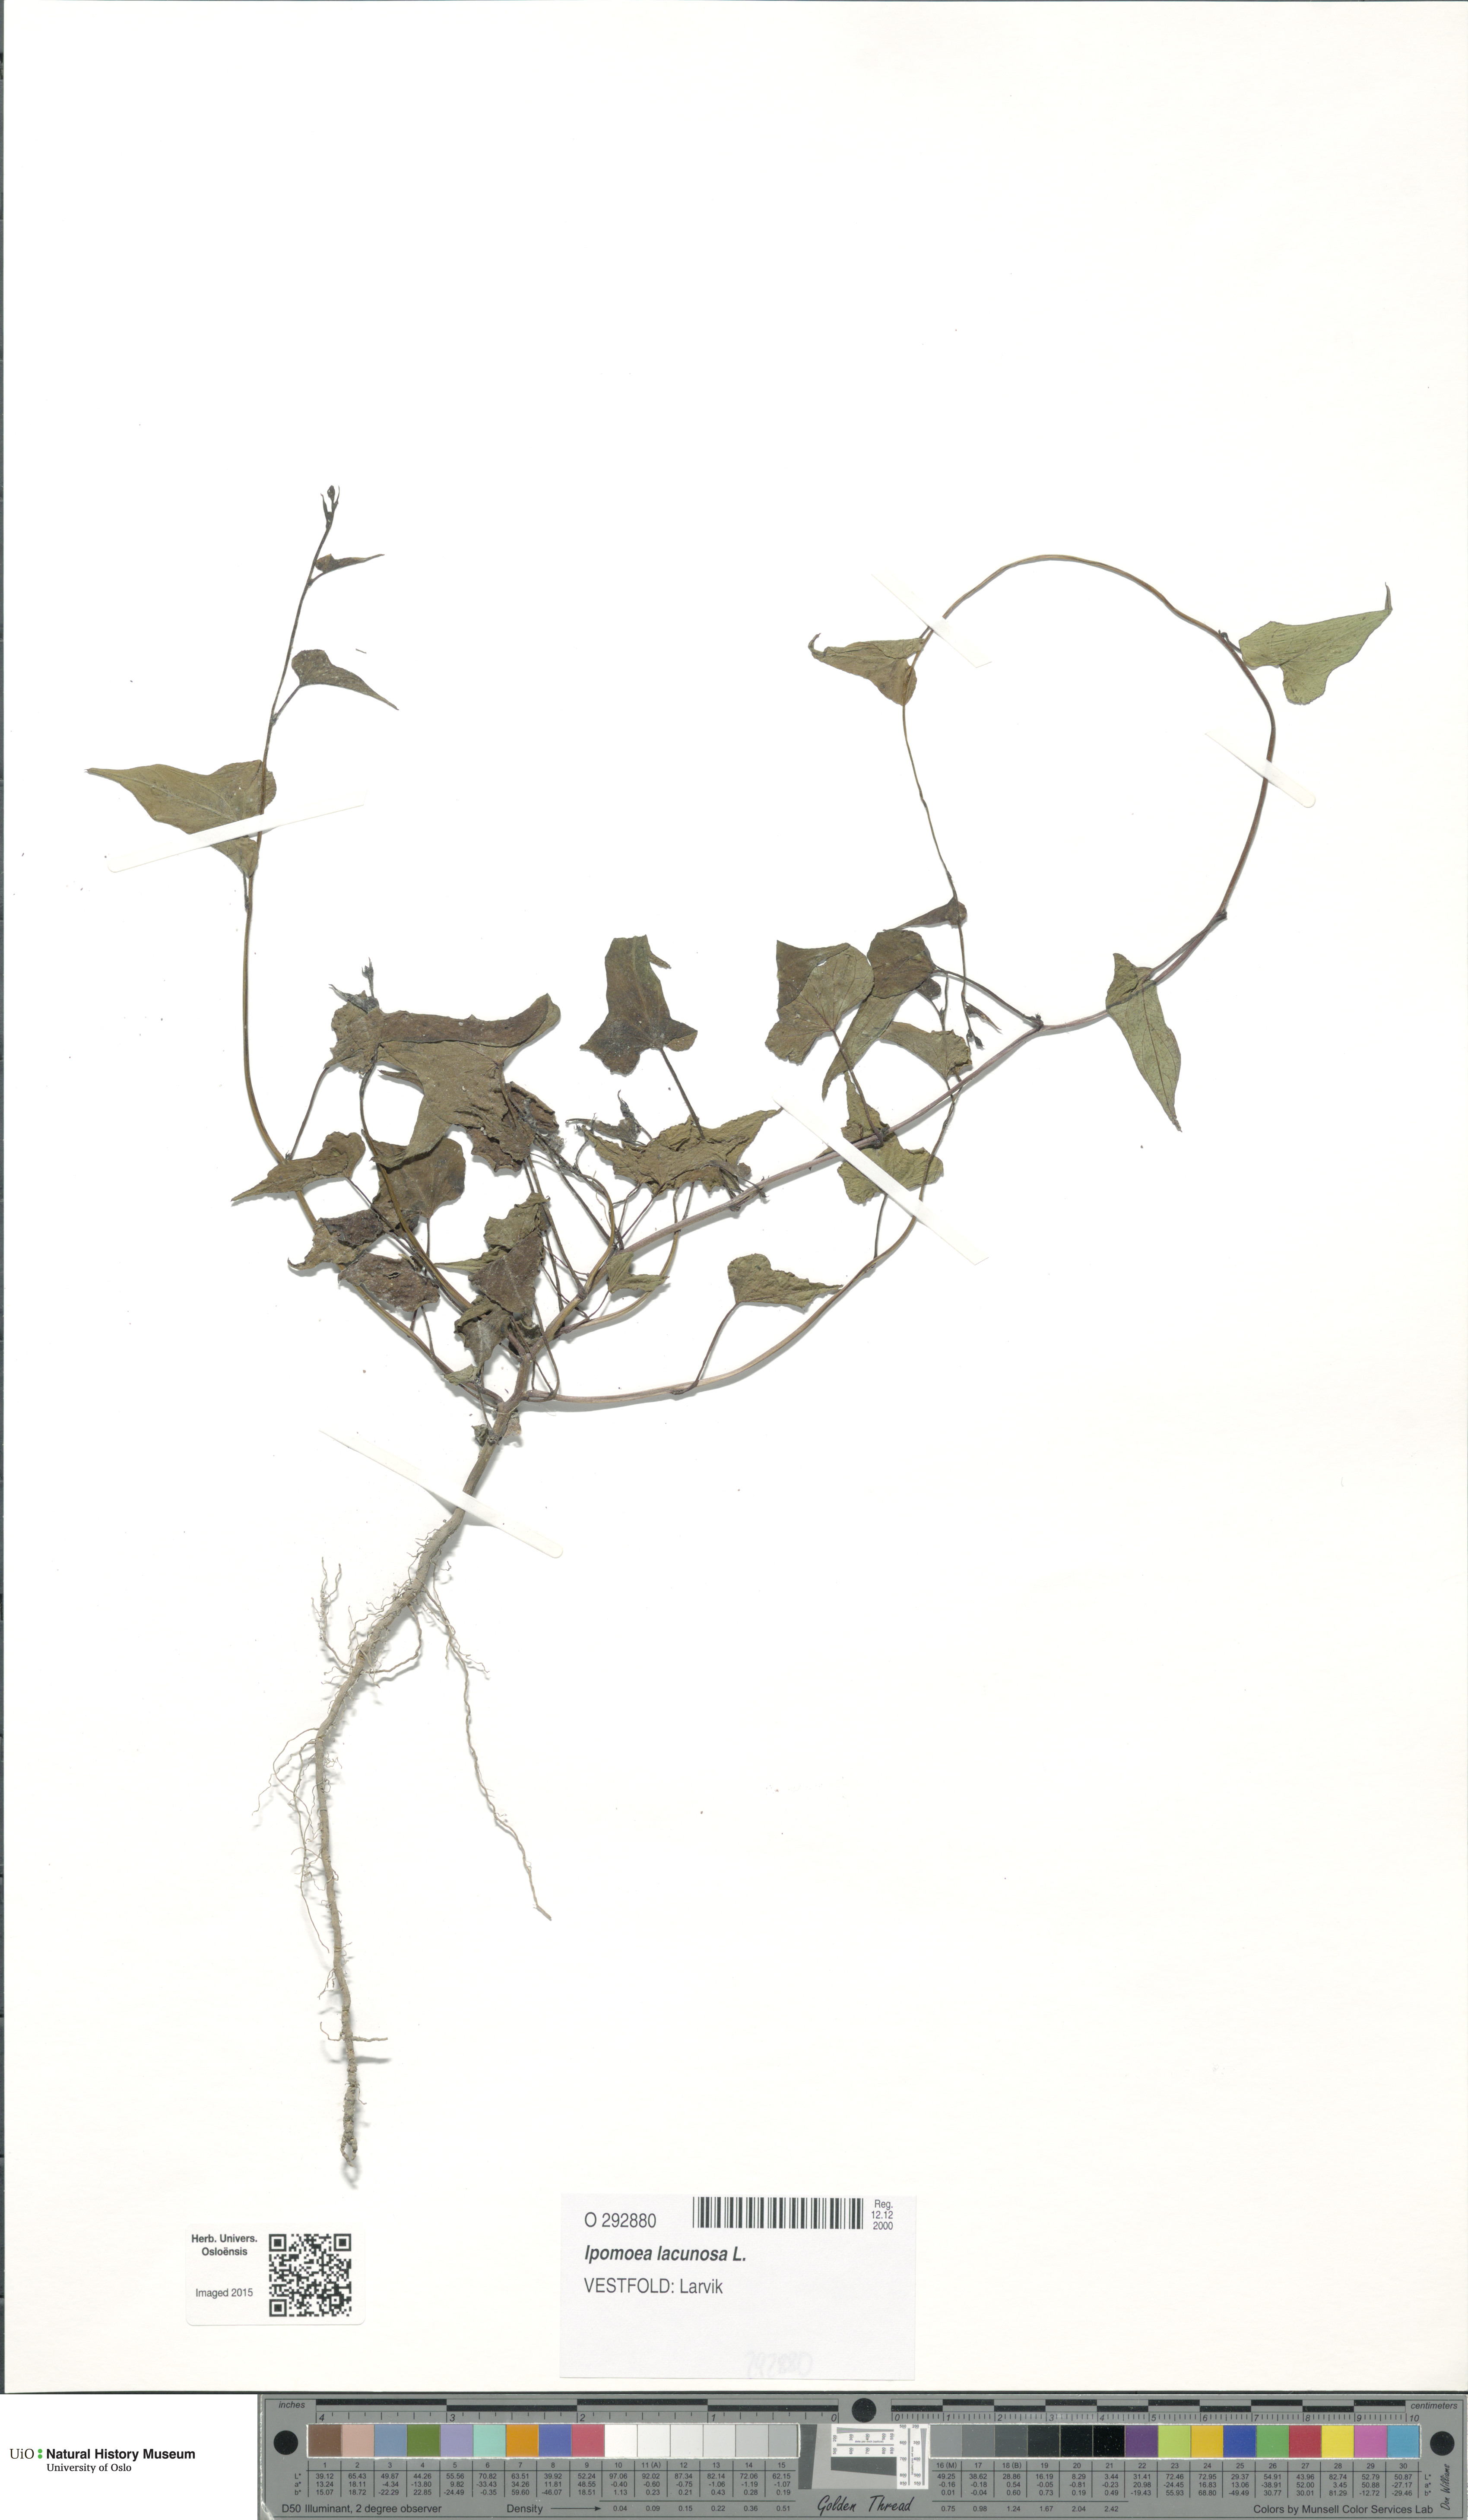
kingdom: Plantae
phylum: Tracheophyta
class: Magnoliopsida
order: Solanales
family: Convolvulaceae
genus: Ipomoea
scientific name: Ipomoea lacunosa
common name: White morning-glory
